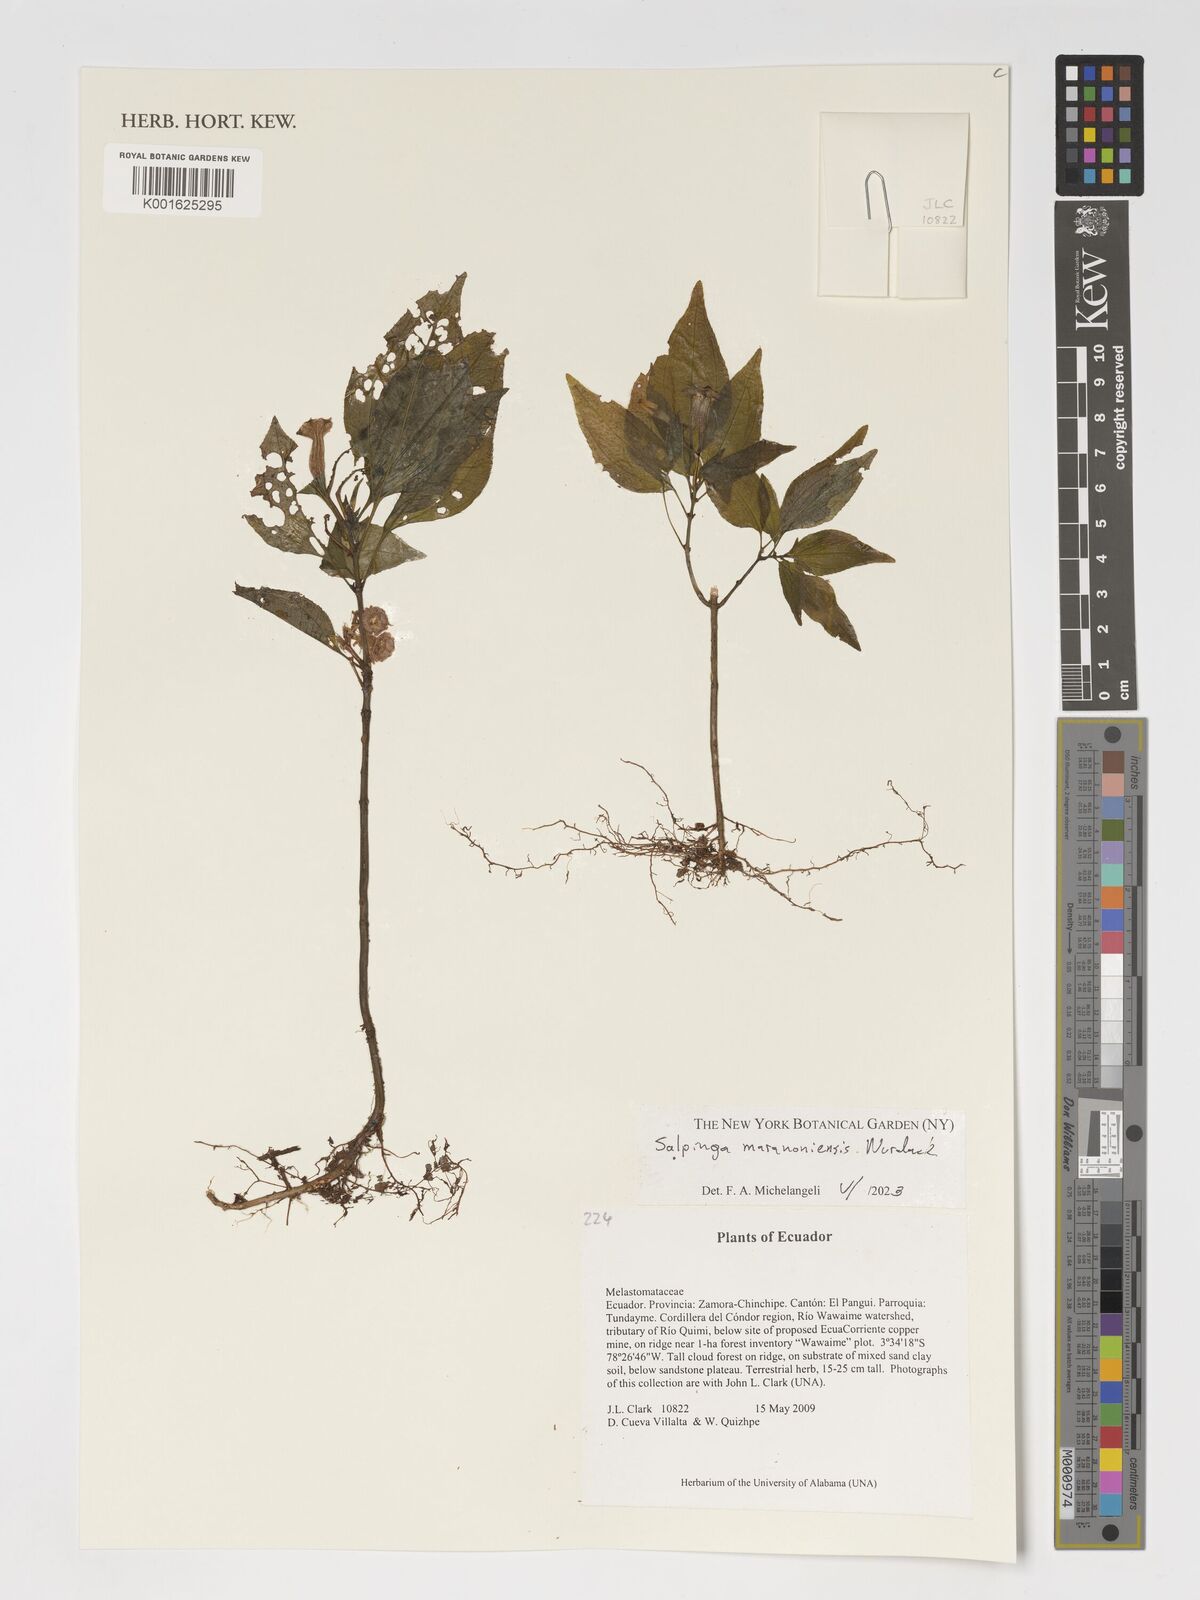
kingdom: Plantae
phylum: Tracheophyta
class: Magnoliopsida
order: Myrtales
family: Melastomataceae
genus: Salpinga
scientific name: Salpinga maranonensis
